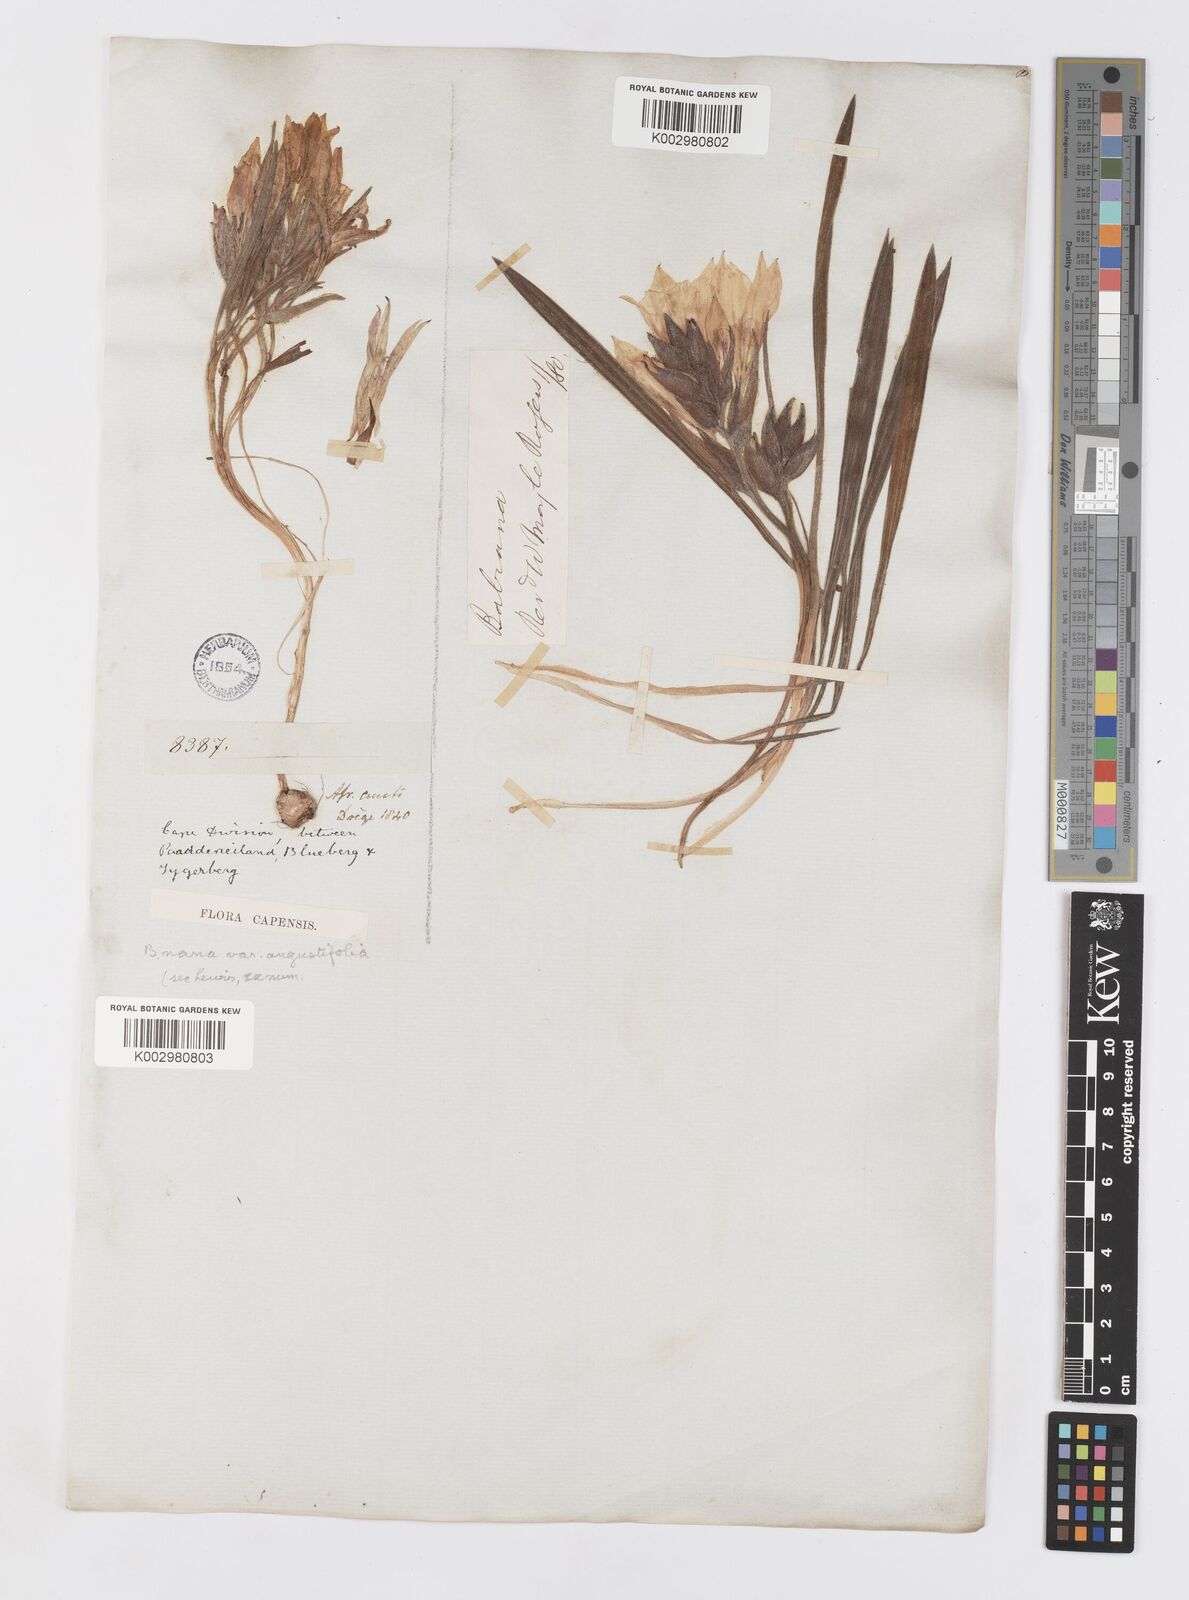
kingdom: Plantae
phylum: Tracheophyta
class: Liliopsida
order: Asparagales
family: Iridaceae
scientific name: Iridaceae
